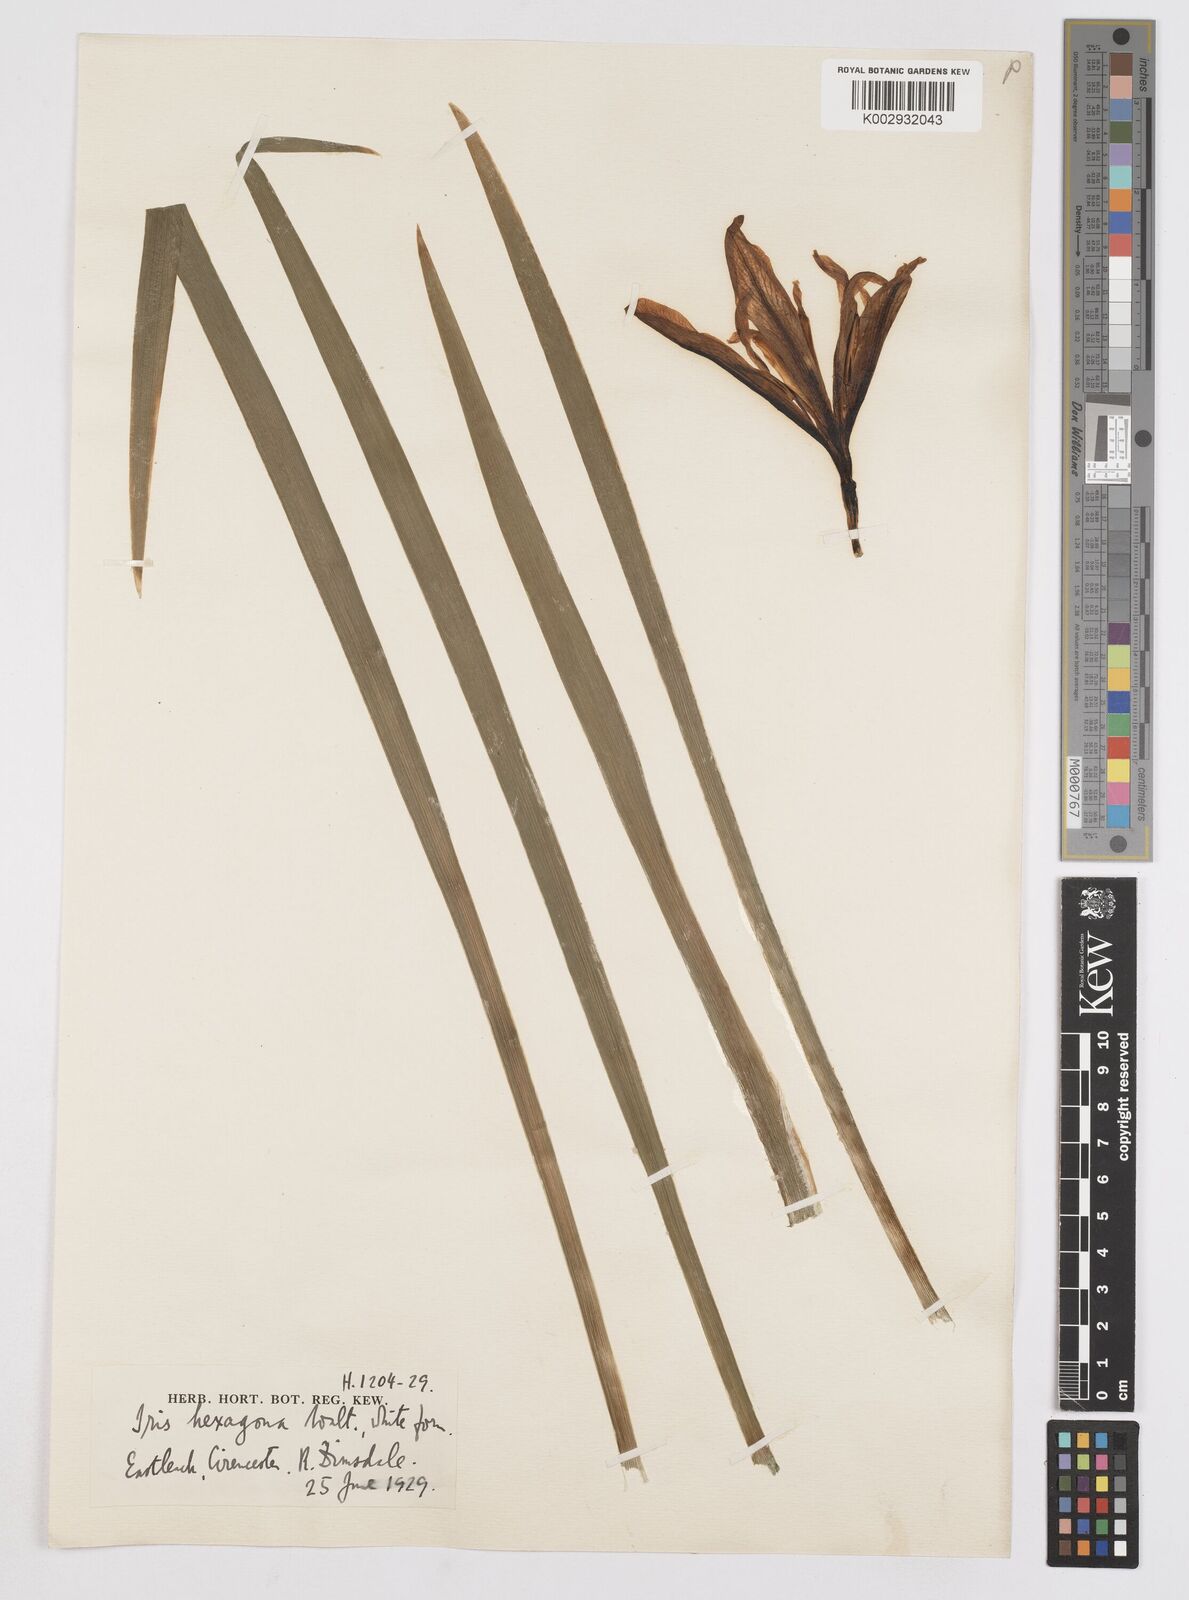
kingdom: Plantae
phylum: Tracheophyta
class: Liliopsida
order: Asparagales
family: Iridaceae
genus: Iris
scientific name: Iris hexagona
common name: Carolina iris
